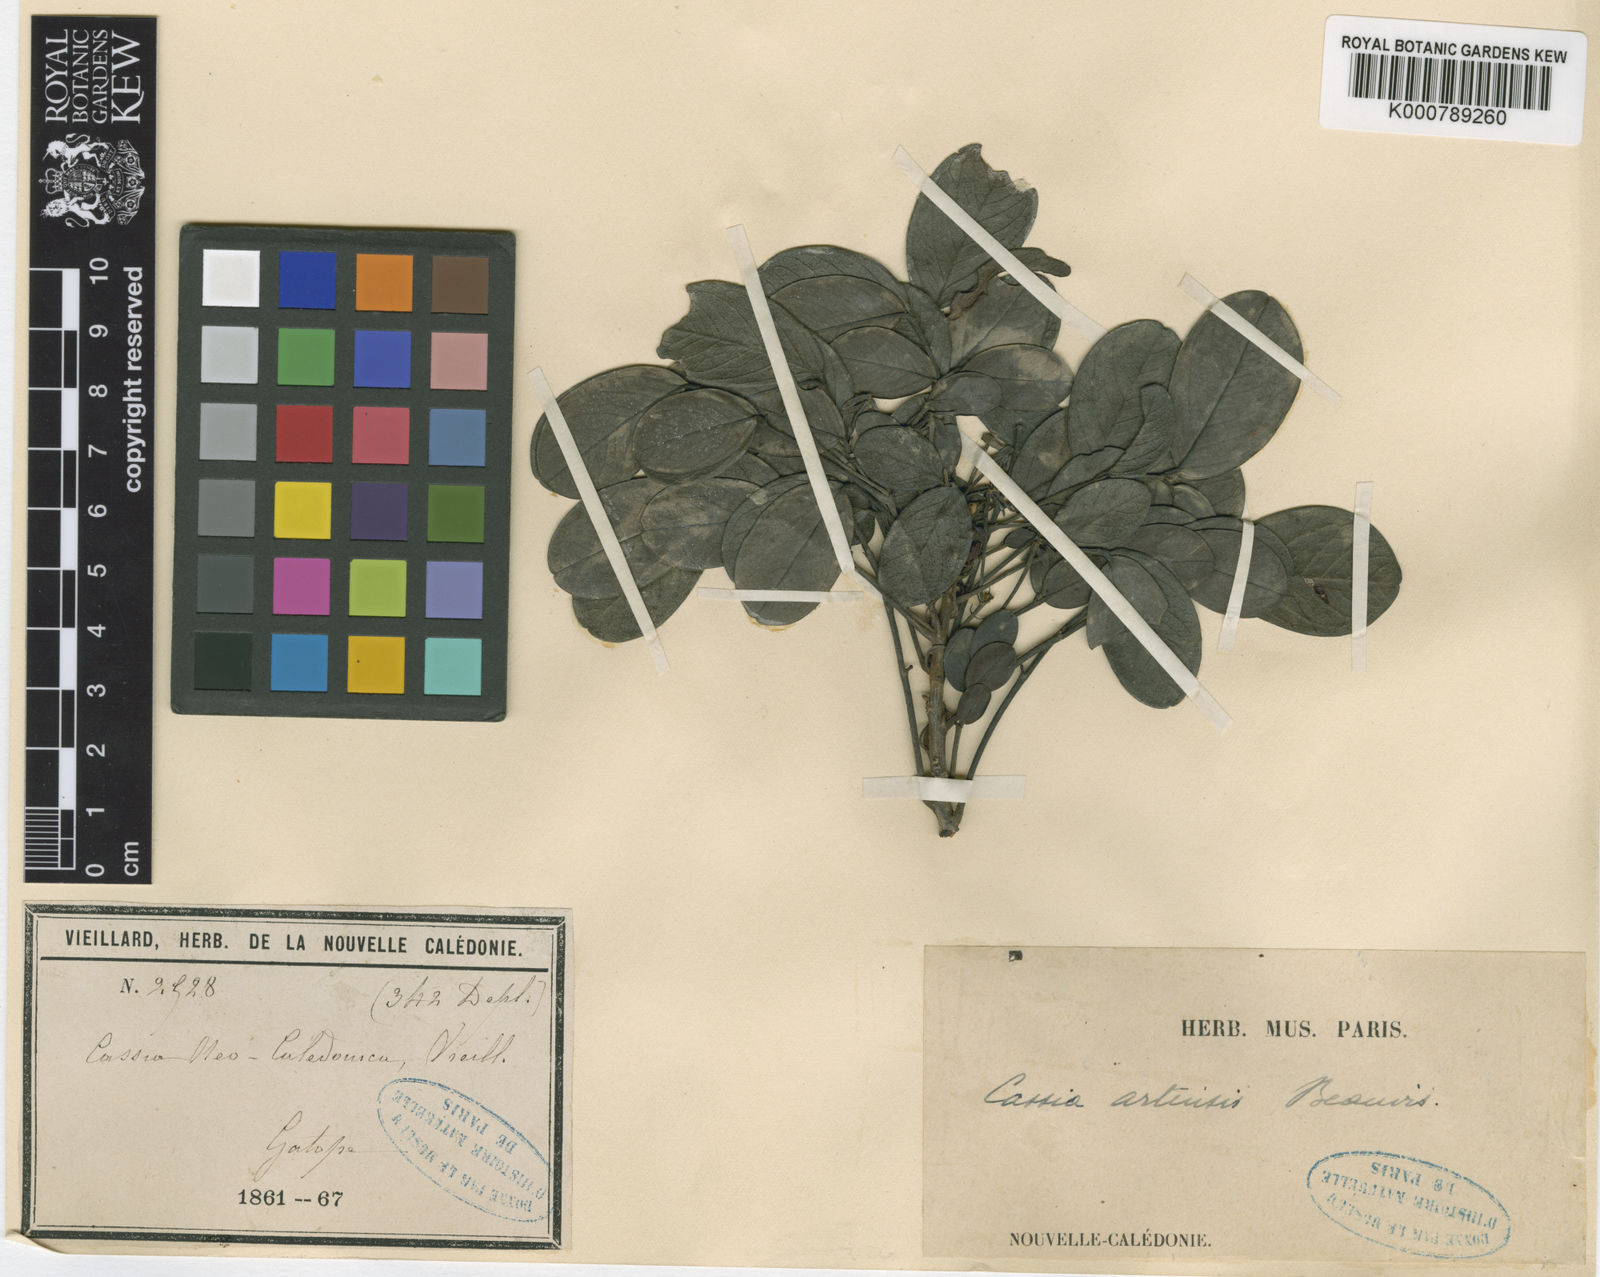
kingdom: Plantae
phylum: Tracheophyta
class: Magnoliopsida
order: Fabales
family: Fabaceae
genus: Cassia
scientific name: Cassia artensis
